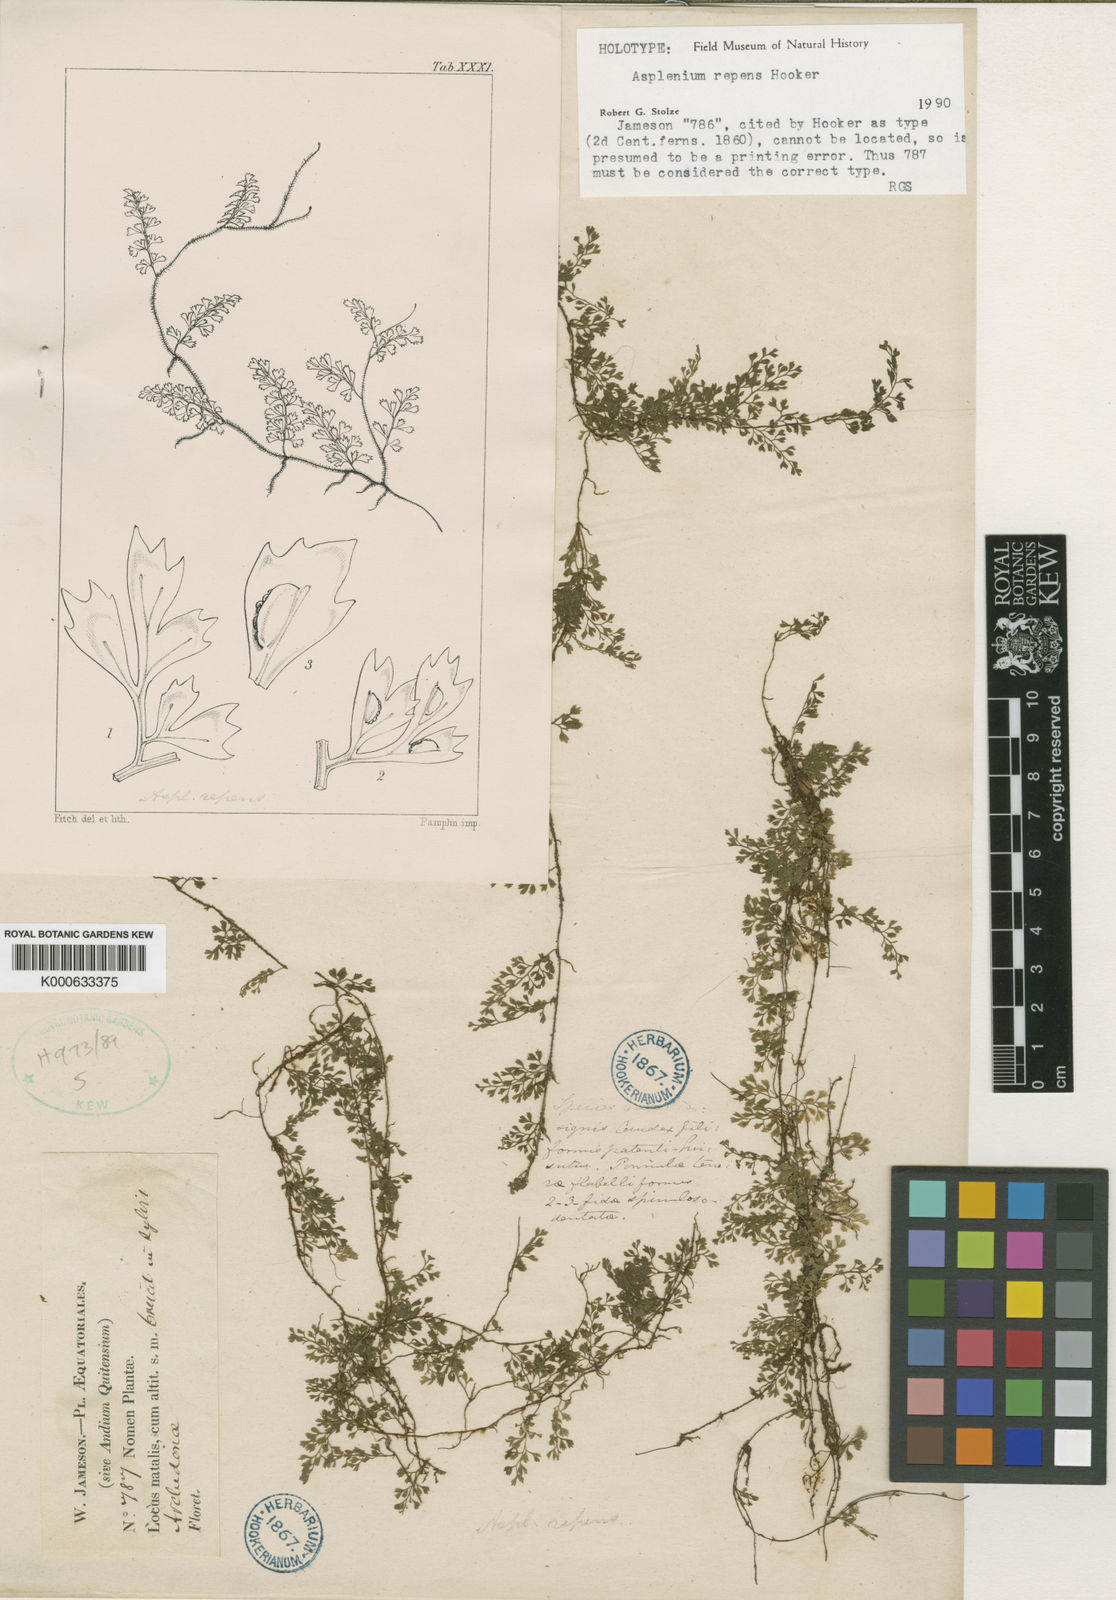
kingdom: Plantae
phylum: Tracheophyta
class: Polypodiopsida
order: Polypodiales
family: Aspleniaceae
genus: Asplenium
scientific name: Asplenium repens
